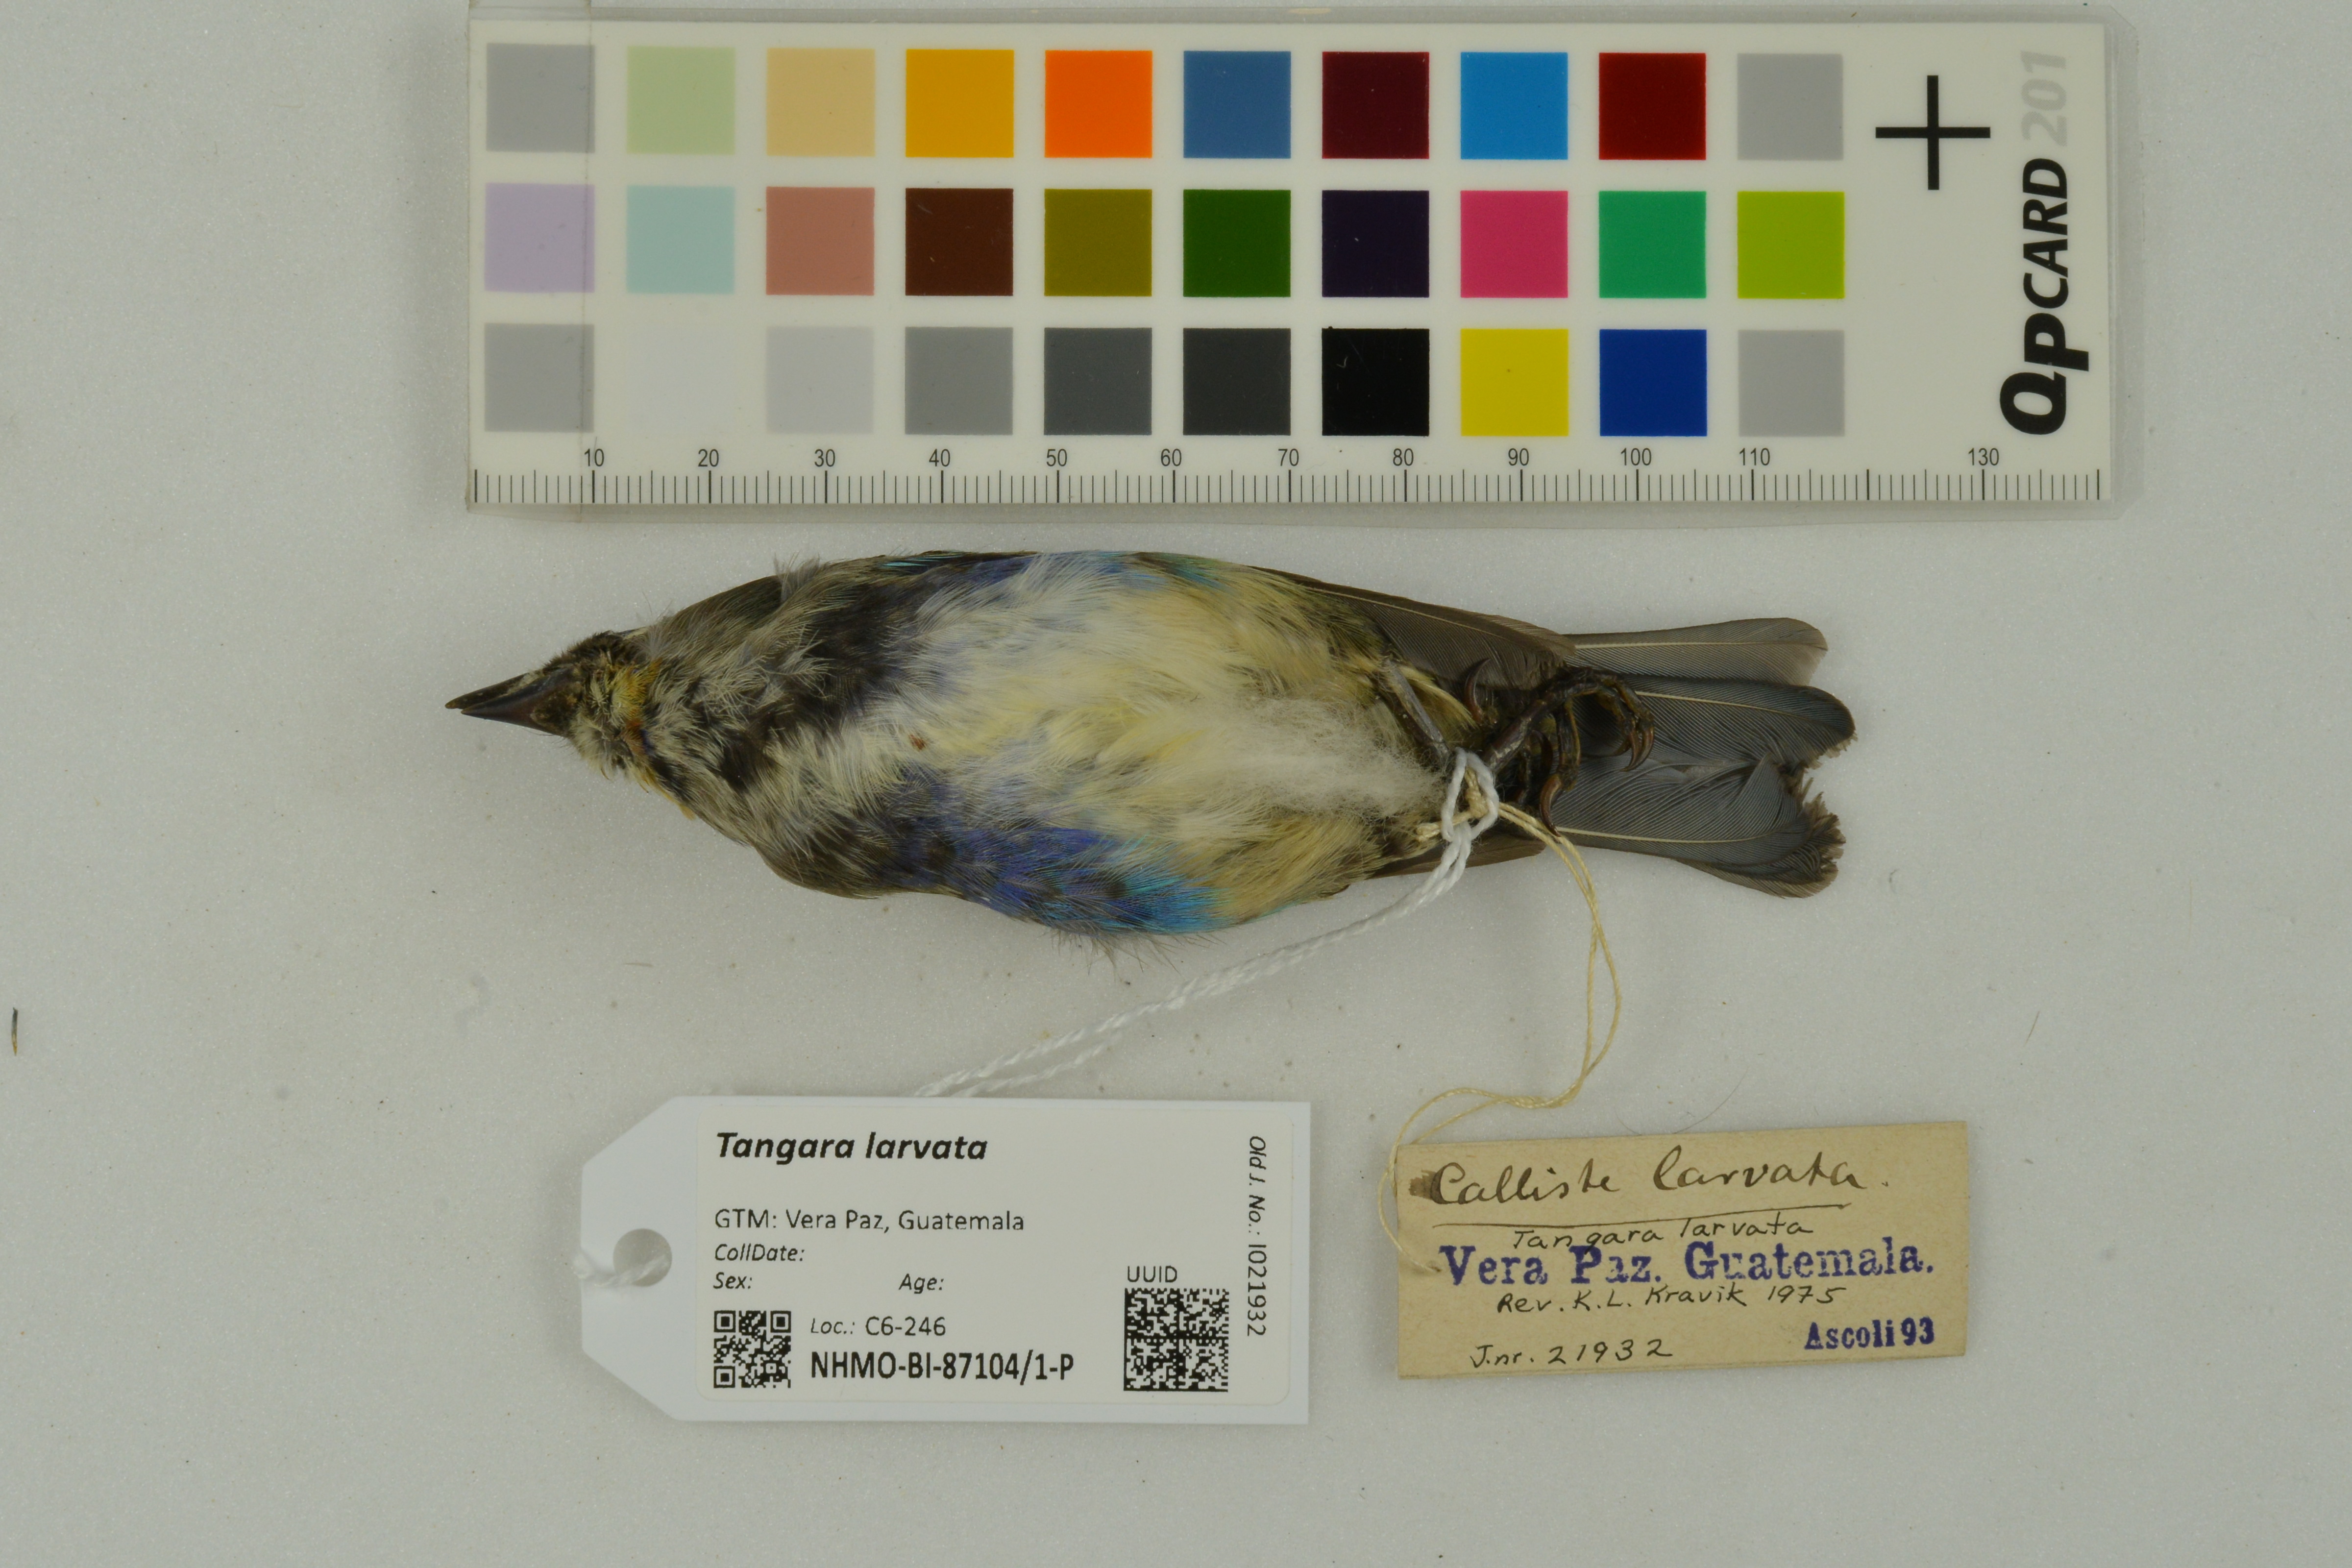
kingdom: Animalia
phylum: Chordata
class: Aves
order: Passeriformes
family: Thraupidae
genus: Stilpnia
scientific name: Stilpnia larvata
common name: Golden-hooded tanager
